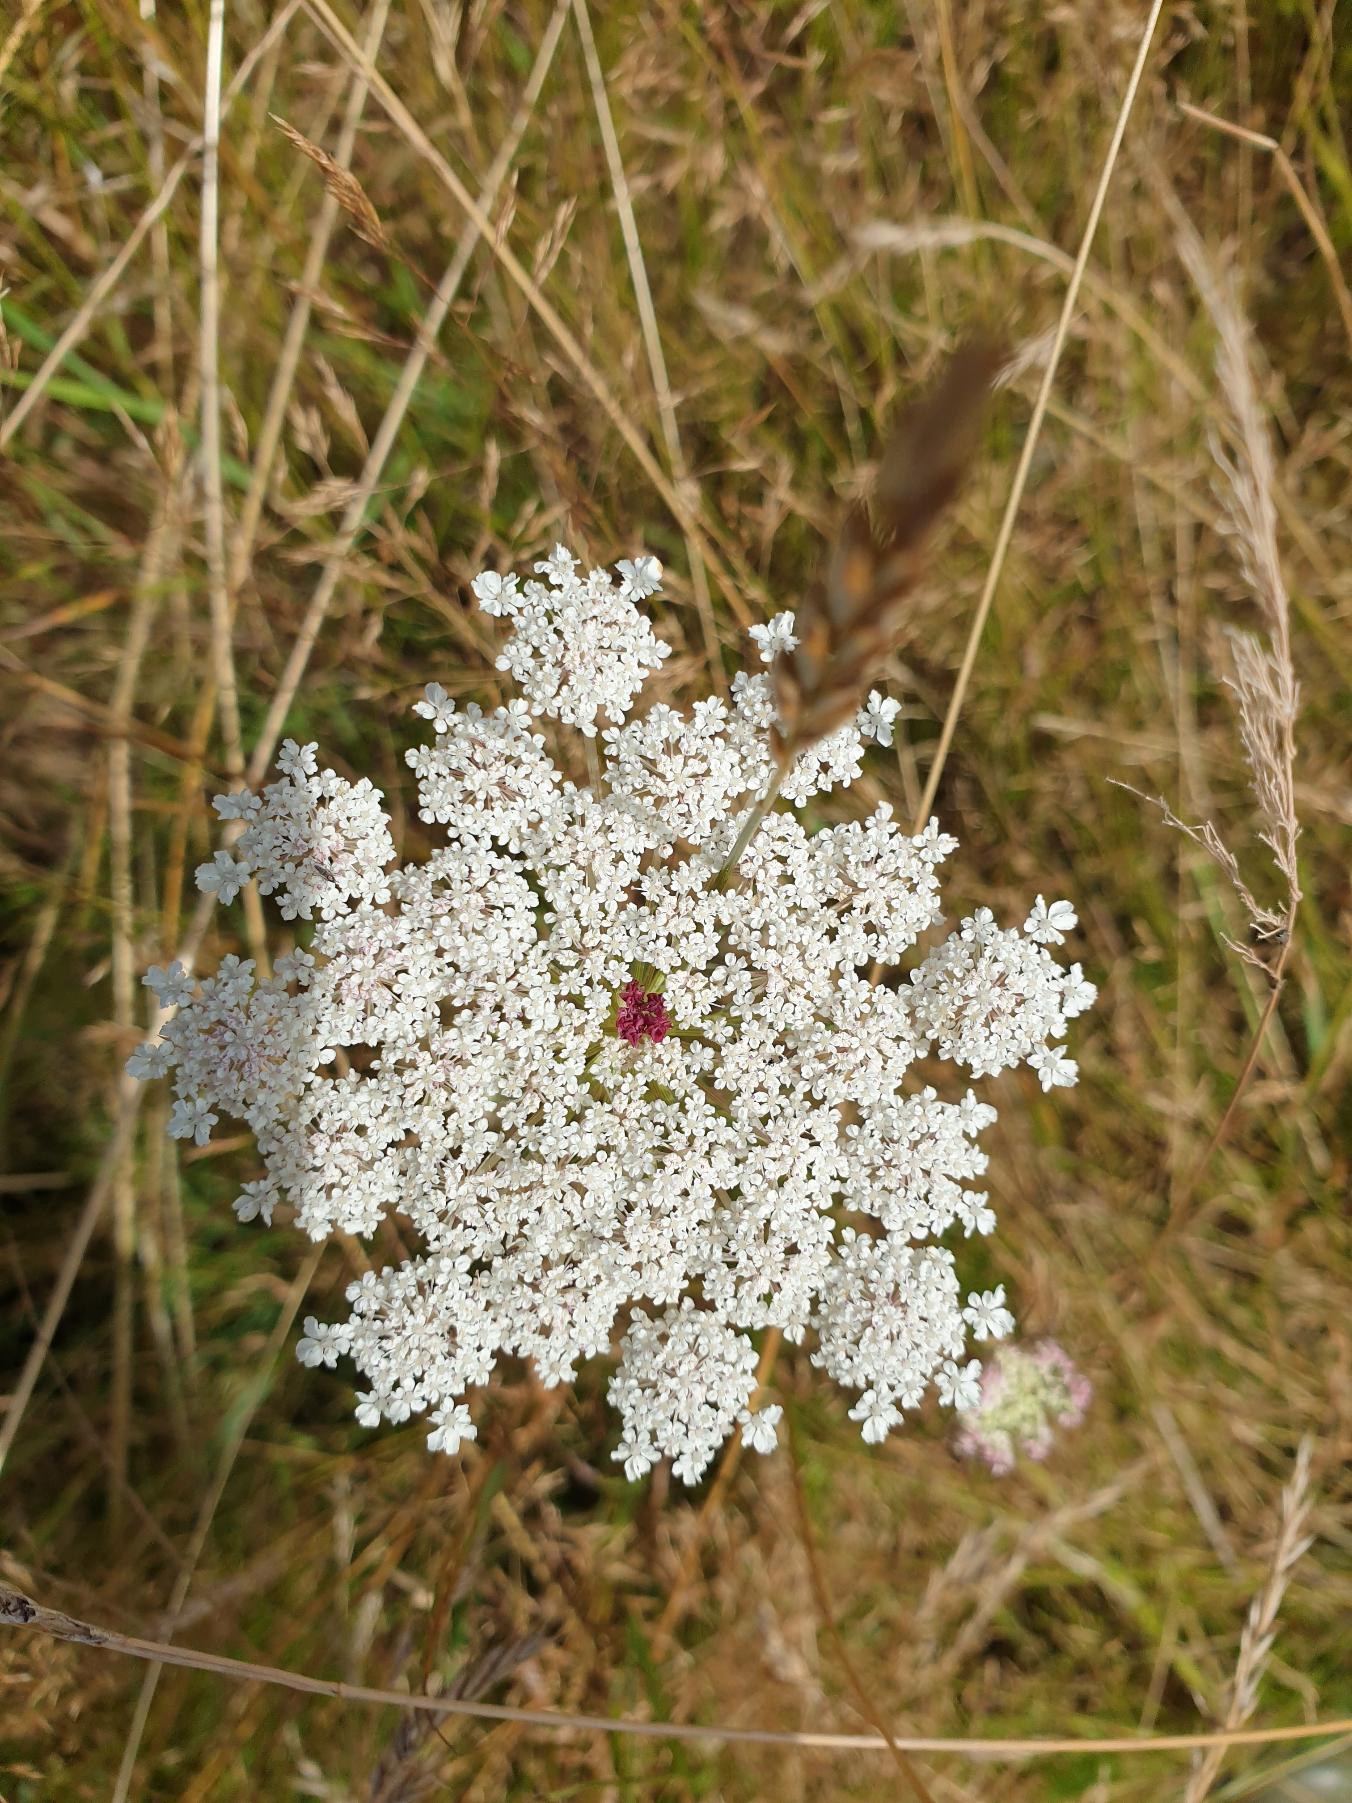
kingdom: Plantae
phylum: Tracheophyta
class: Magnoliopsida
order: Apiales
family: Apiaceae
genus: Daucus
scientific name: Daucus carota
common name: Gulerod
